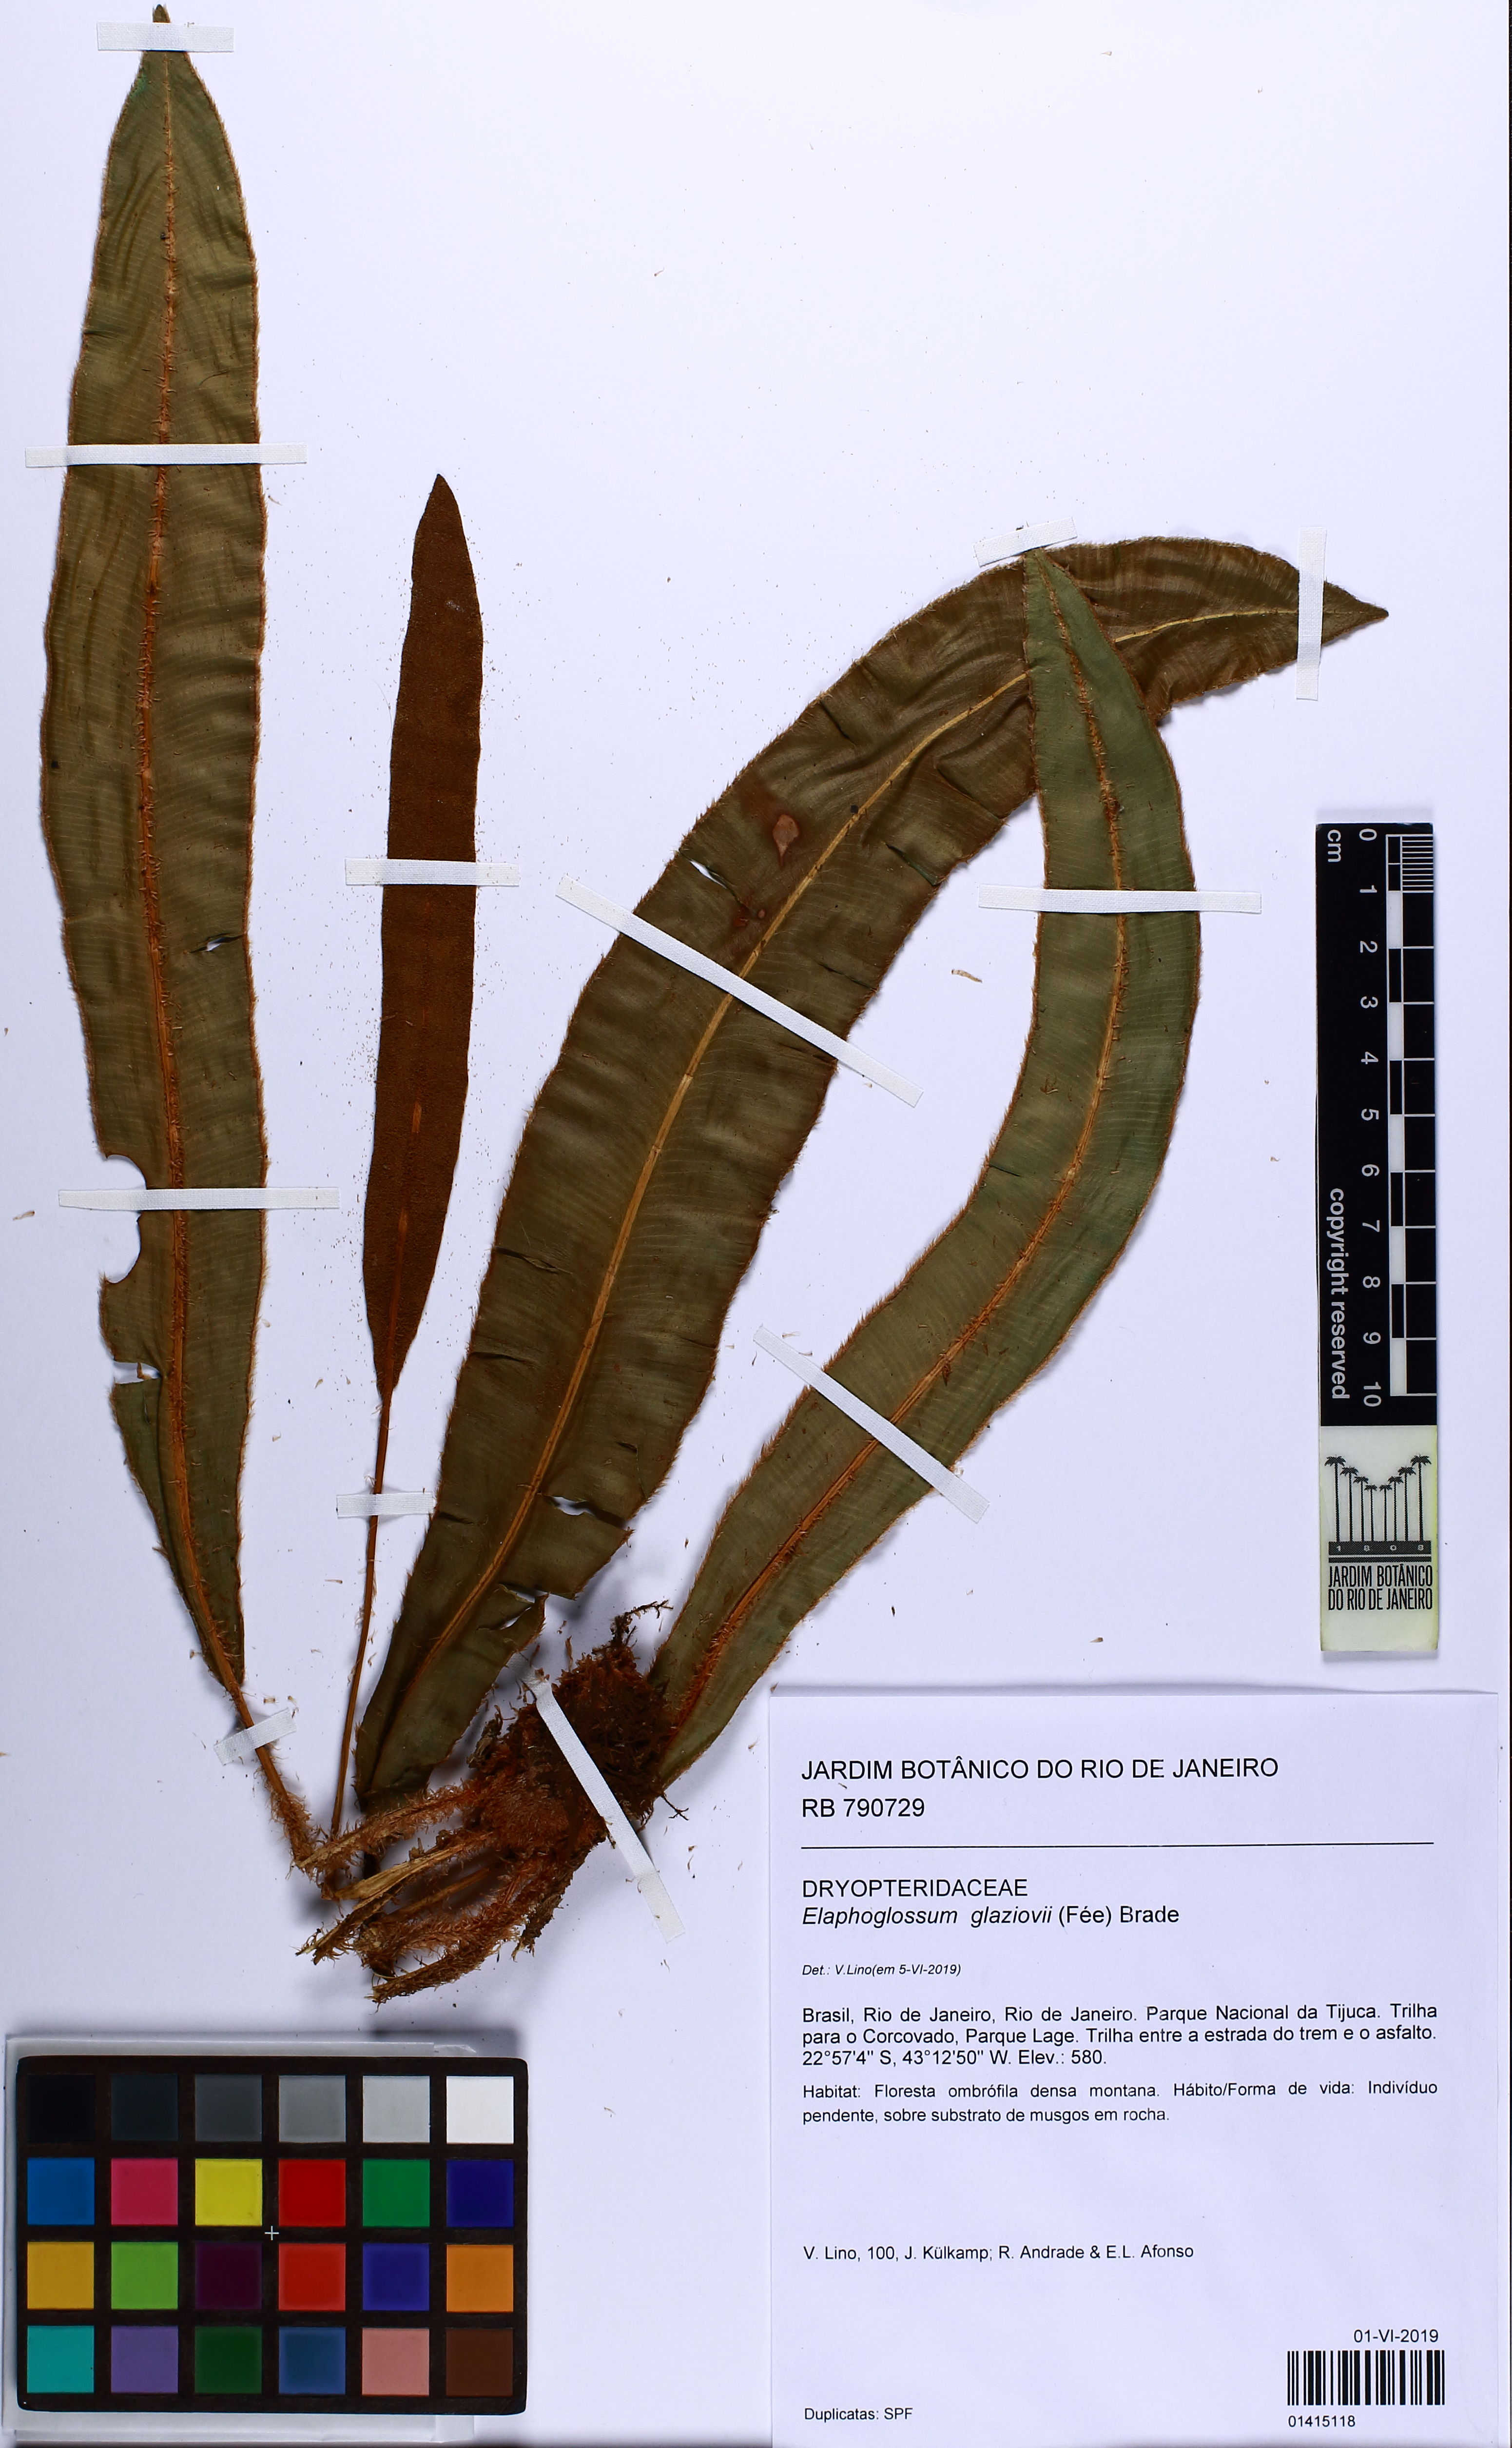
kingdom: Plantae
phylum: Tracheophyta
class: Polypodiopsida
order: Polypodiales
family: Dryopteridaceae
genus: Elaphoglossum
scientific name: Elaphoglossum glaziovii
